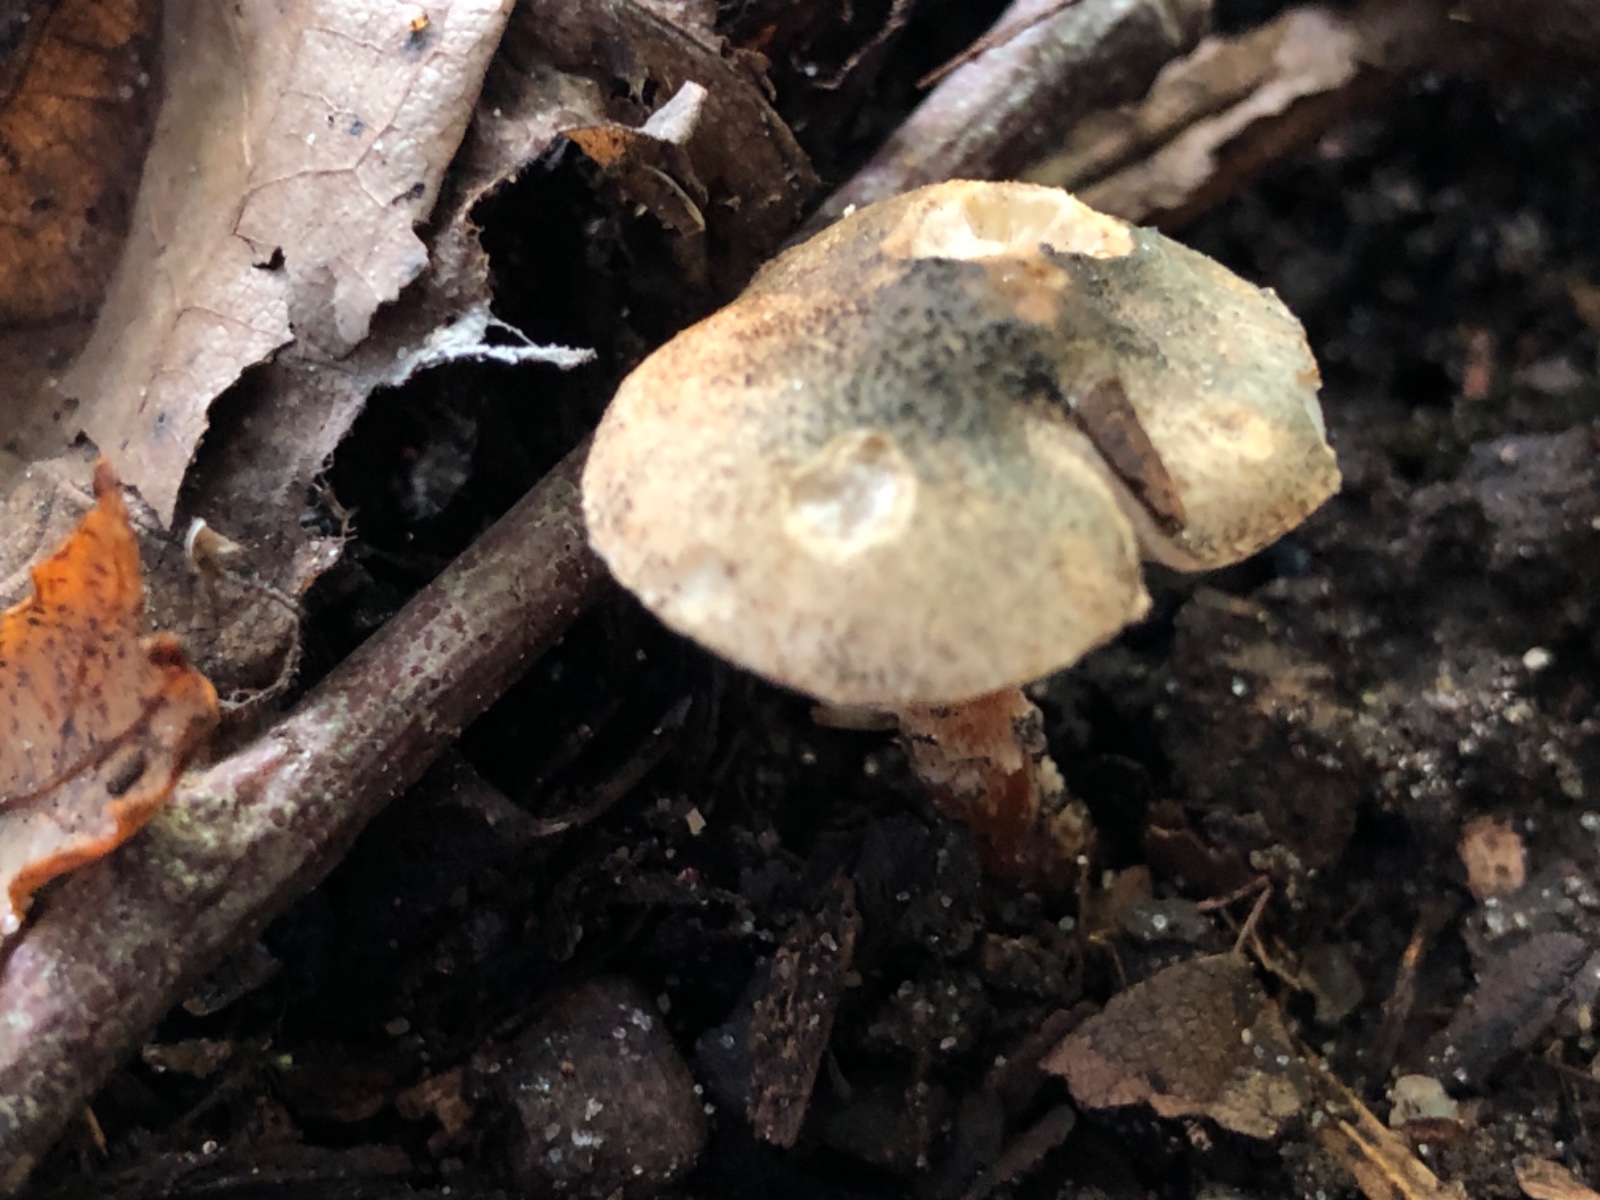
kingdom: Fungi
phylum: Basidiomycota
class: Agaricomycetes
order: Agaricales
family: Agaricaceae
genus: Lepiota
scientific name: Lepiota grangei
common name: grønskællet parasolhat
